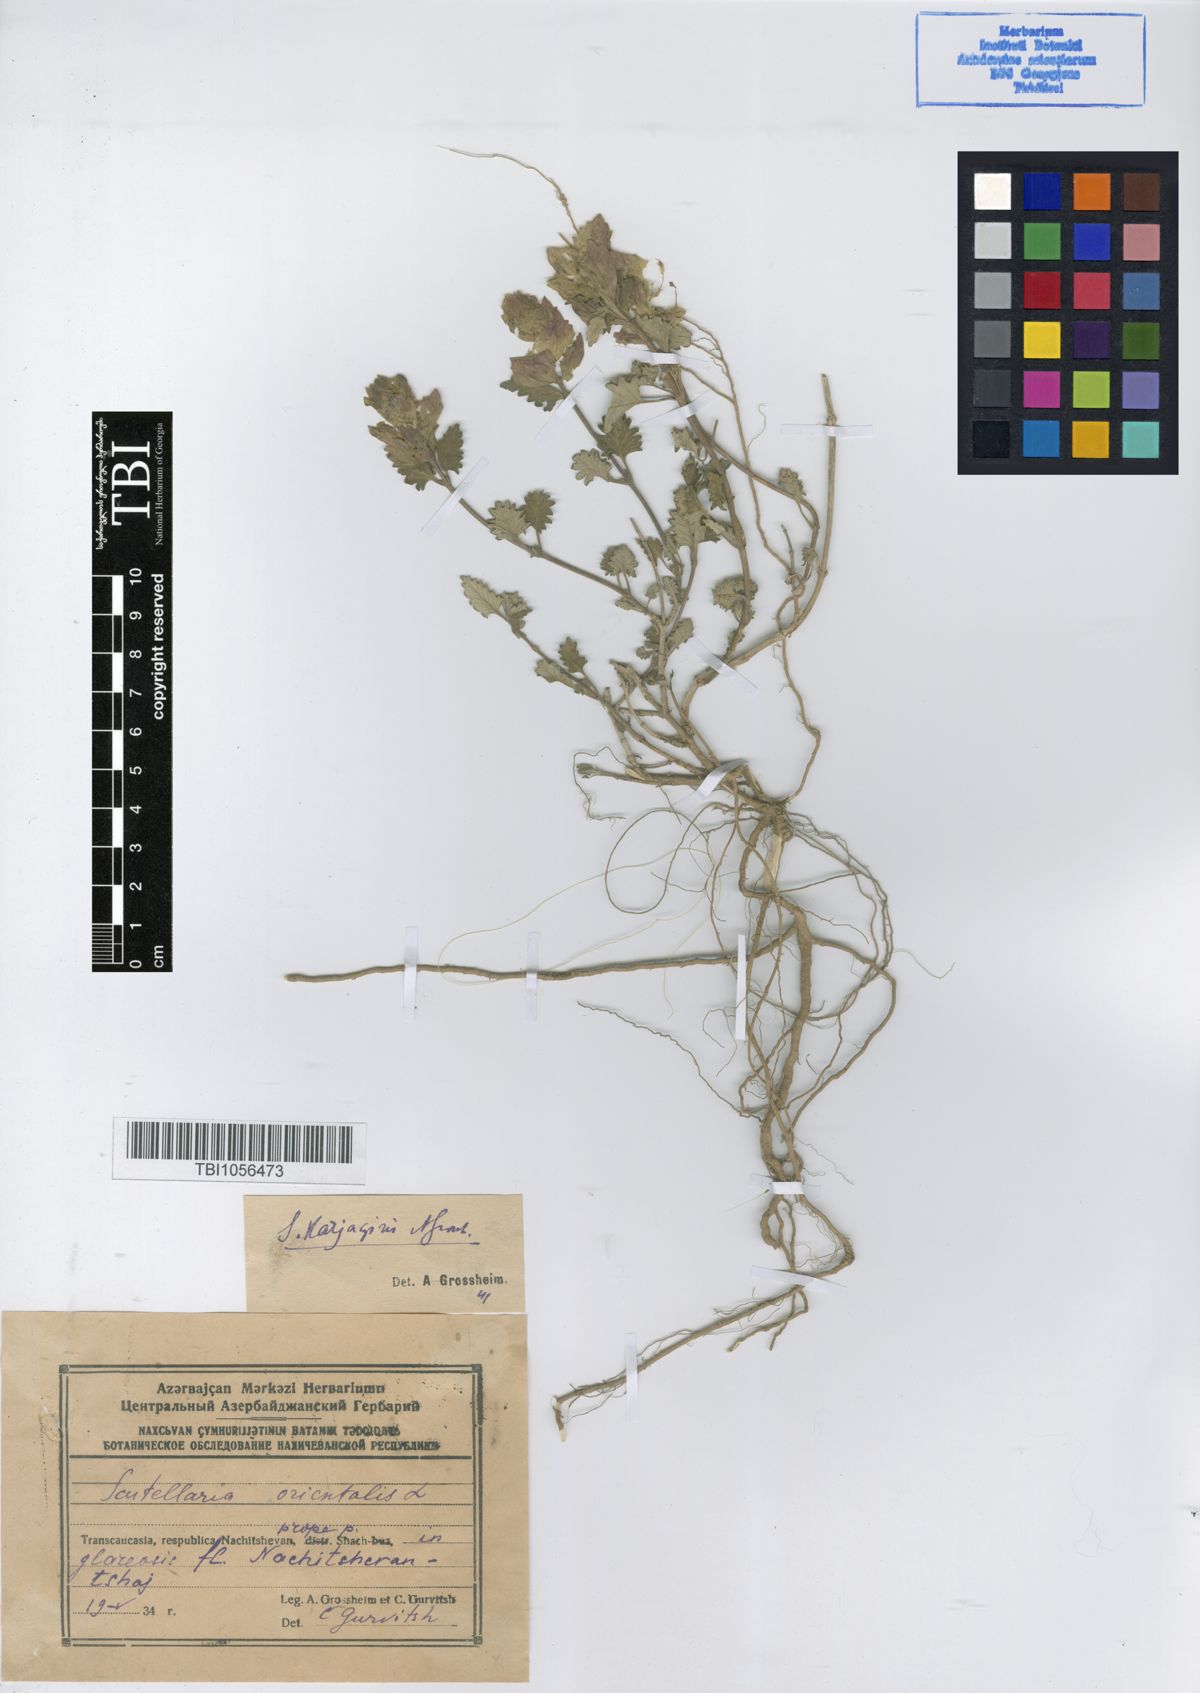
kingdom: Plantae
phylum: Tracheophyta
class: Magnoliopsida
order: Lamiales
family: Lamiaceae
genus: Scutellaria
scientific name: Scutellaria karjaginii
